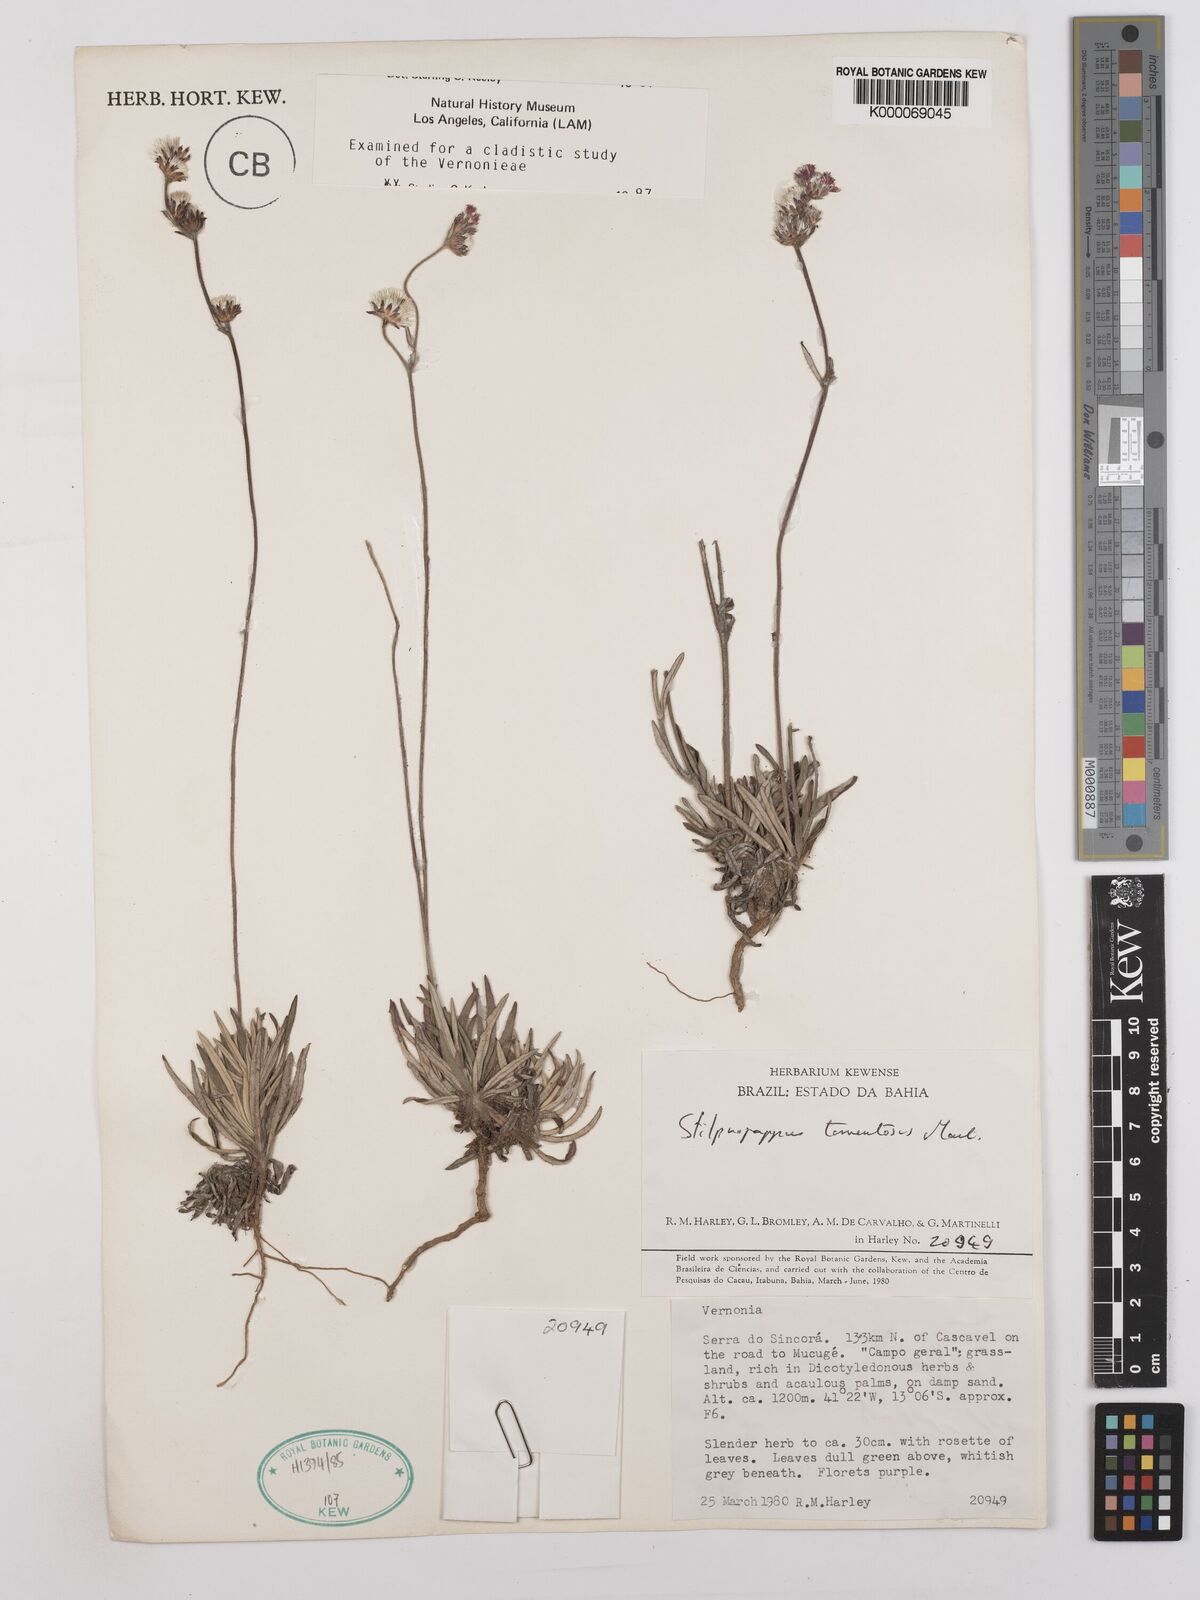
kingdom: Plantae
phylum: Tracheophyta
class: Magnoliopsida
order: Asterales
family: Asteraceae
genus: Stilpnopappus
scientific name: Stilpnopappus tomentosus
